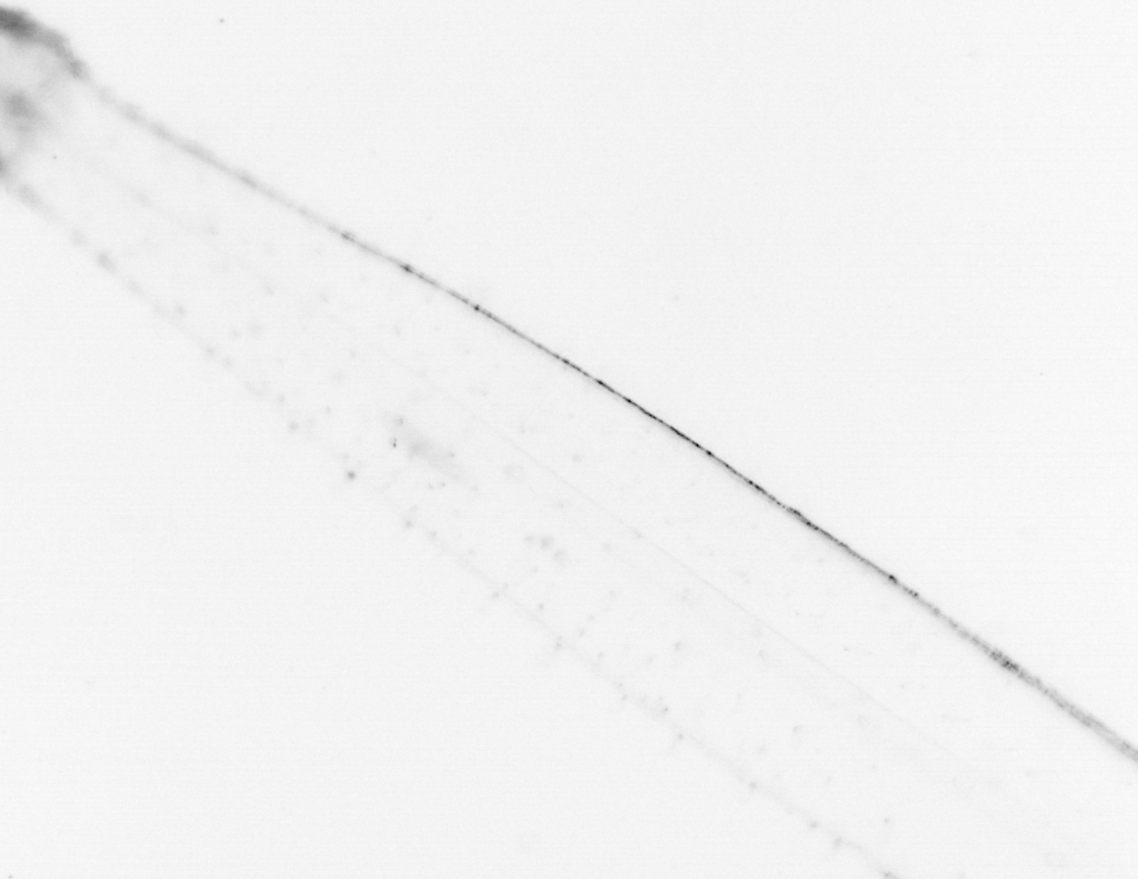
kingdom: Animalia
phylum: Chaetognatha
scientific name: Chaetognatha
